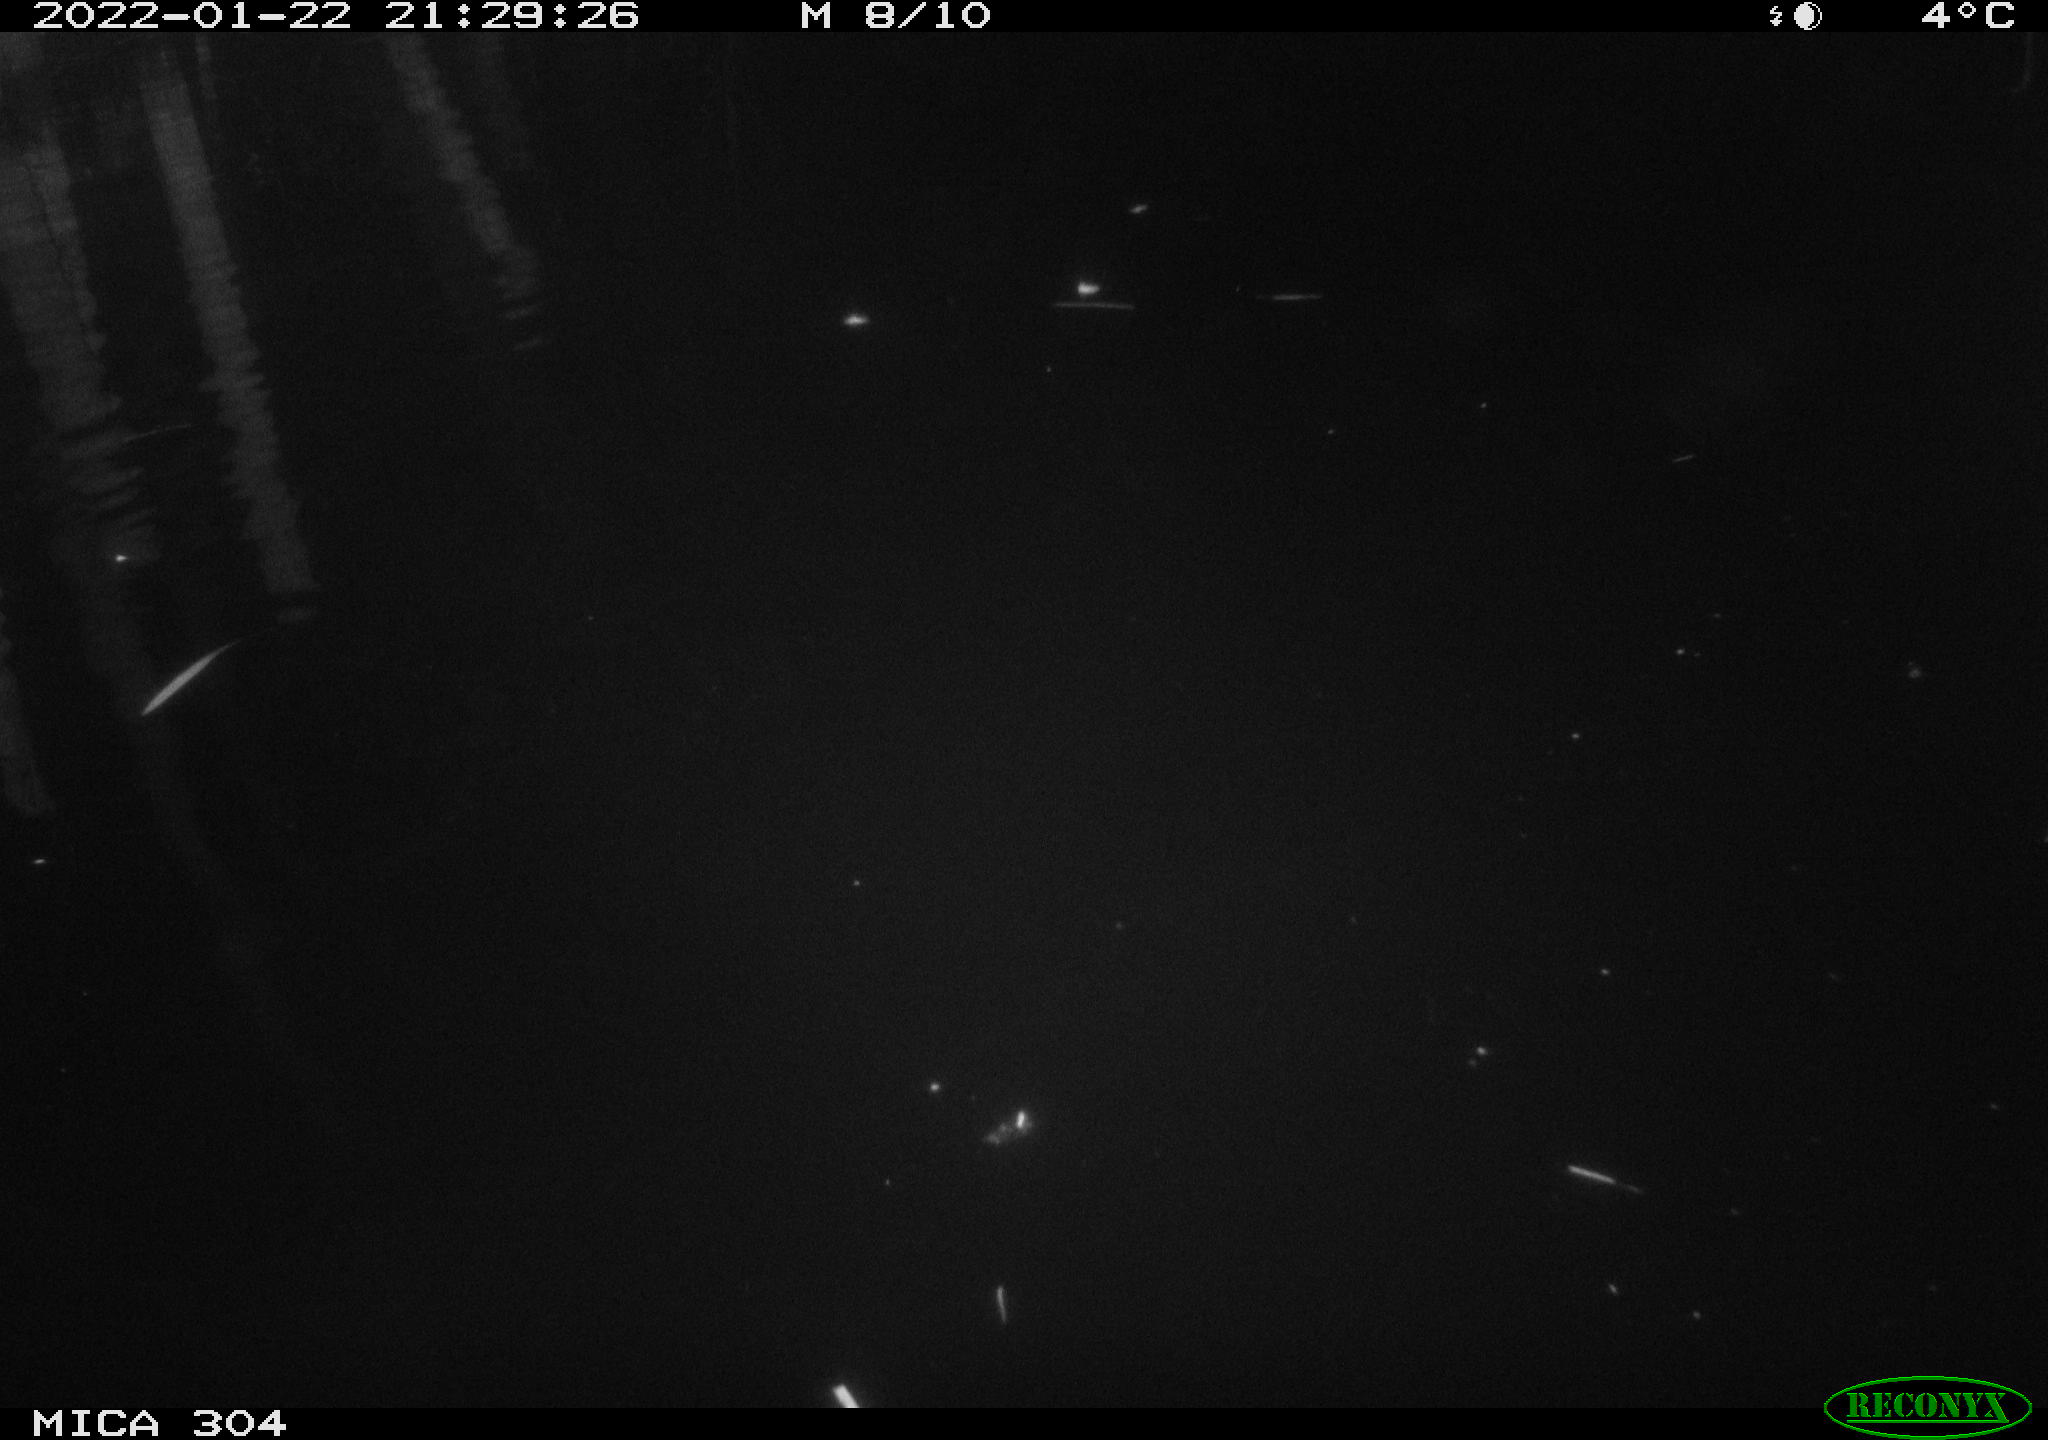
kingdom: Animalia
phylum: Chordata
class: Aves
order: Anseriformes
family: Anatidae
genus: Anas
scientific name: Anas
